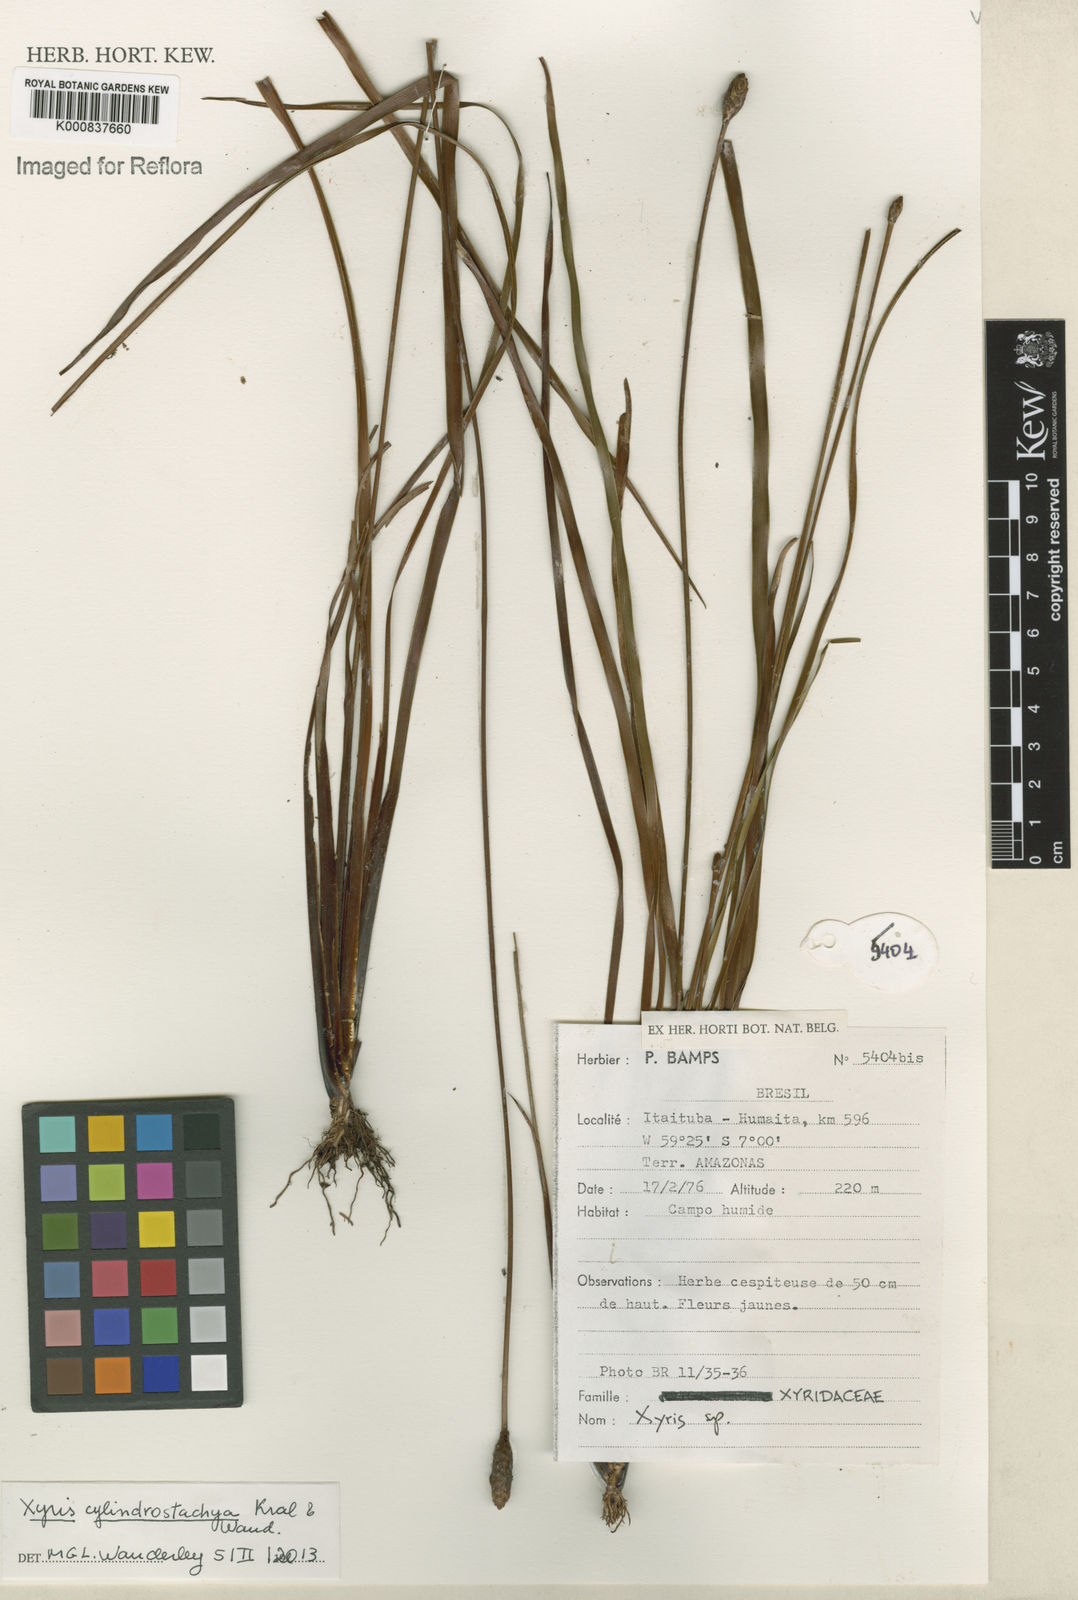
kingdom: Plantae
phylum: Tracheophyta
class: Liliopsida
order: Poales
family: Xyridaceae
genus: Xyris
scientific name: Xyris cylindrostachya
